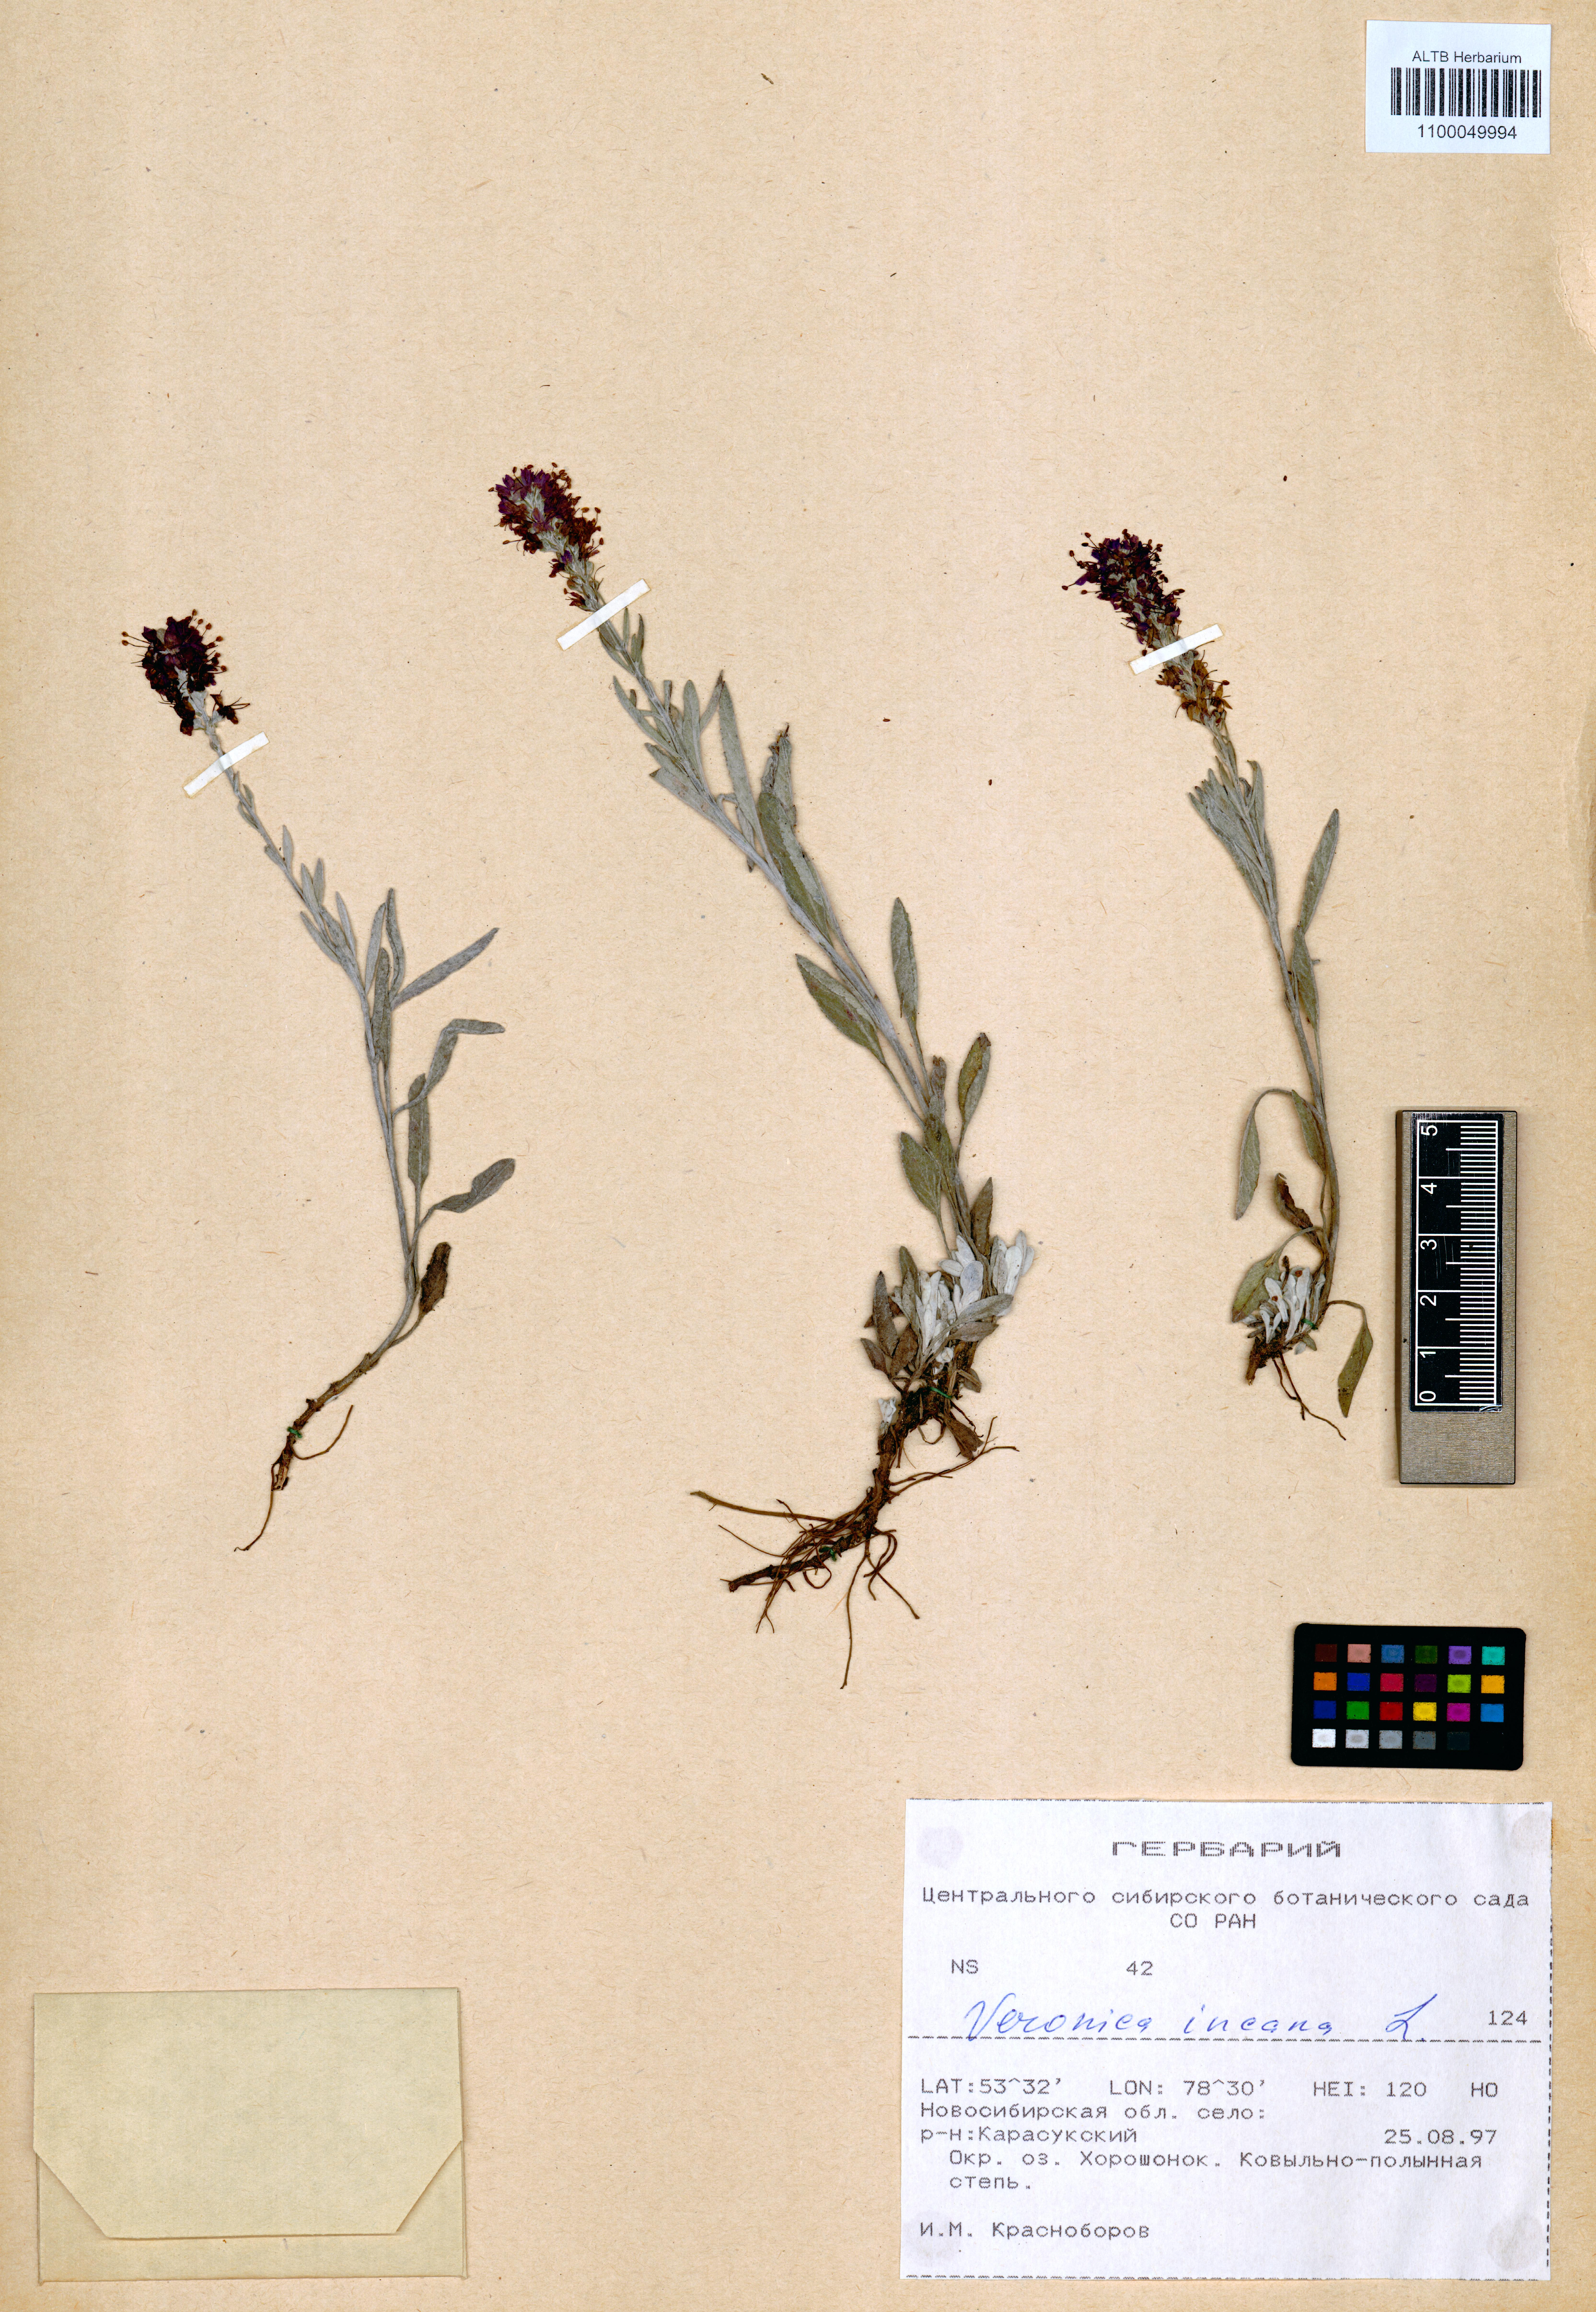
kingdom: Plantae
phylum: Tracheophyta
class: Magnoliopsida
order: Lamiales
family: Plantaginaceae
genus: Veronica
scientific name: Veronica incana
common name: Silver speedwell
